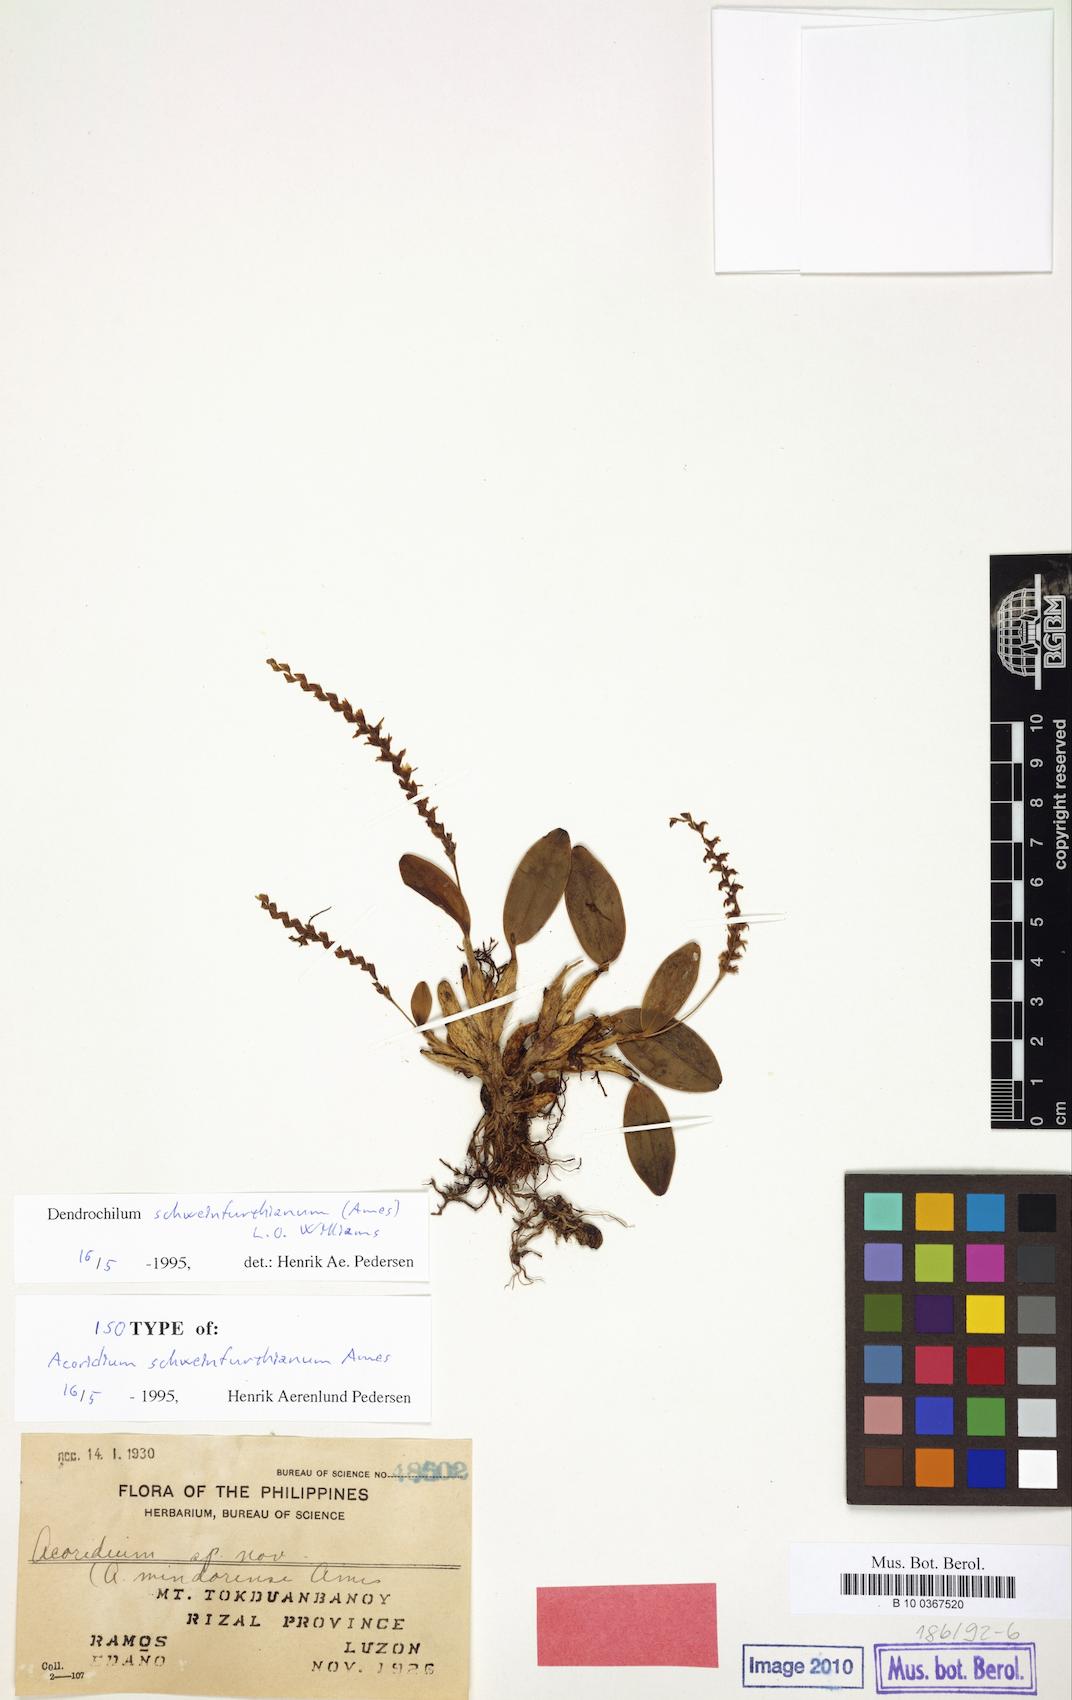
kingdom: Plantae
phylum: Tracheophyta
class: Liliopsida
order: Asparagales
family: Orchidaceae
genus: Coelogyne
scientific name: Coelogyne tokduanbanoyana
